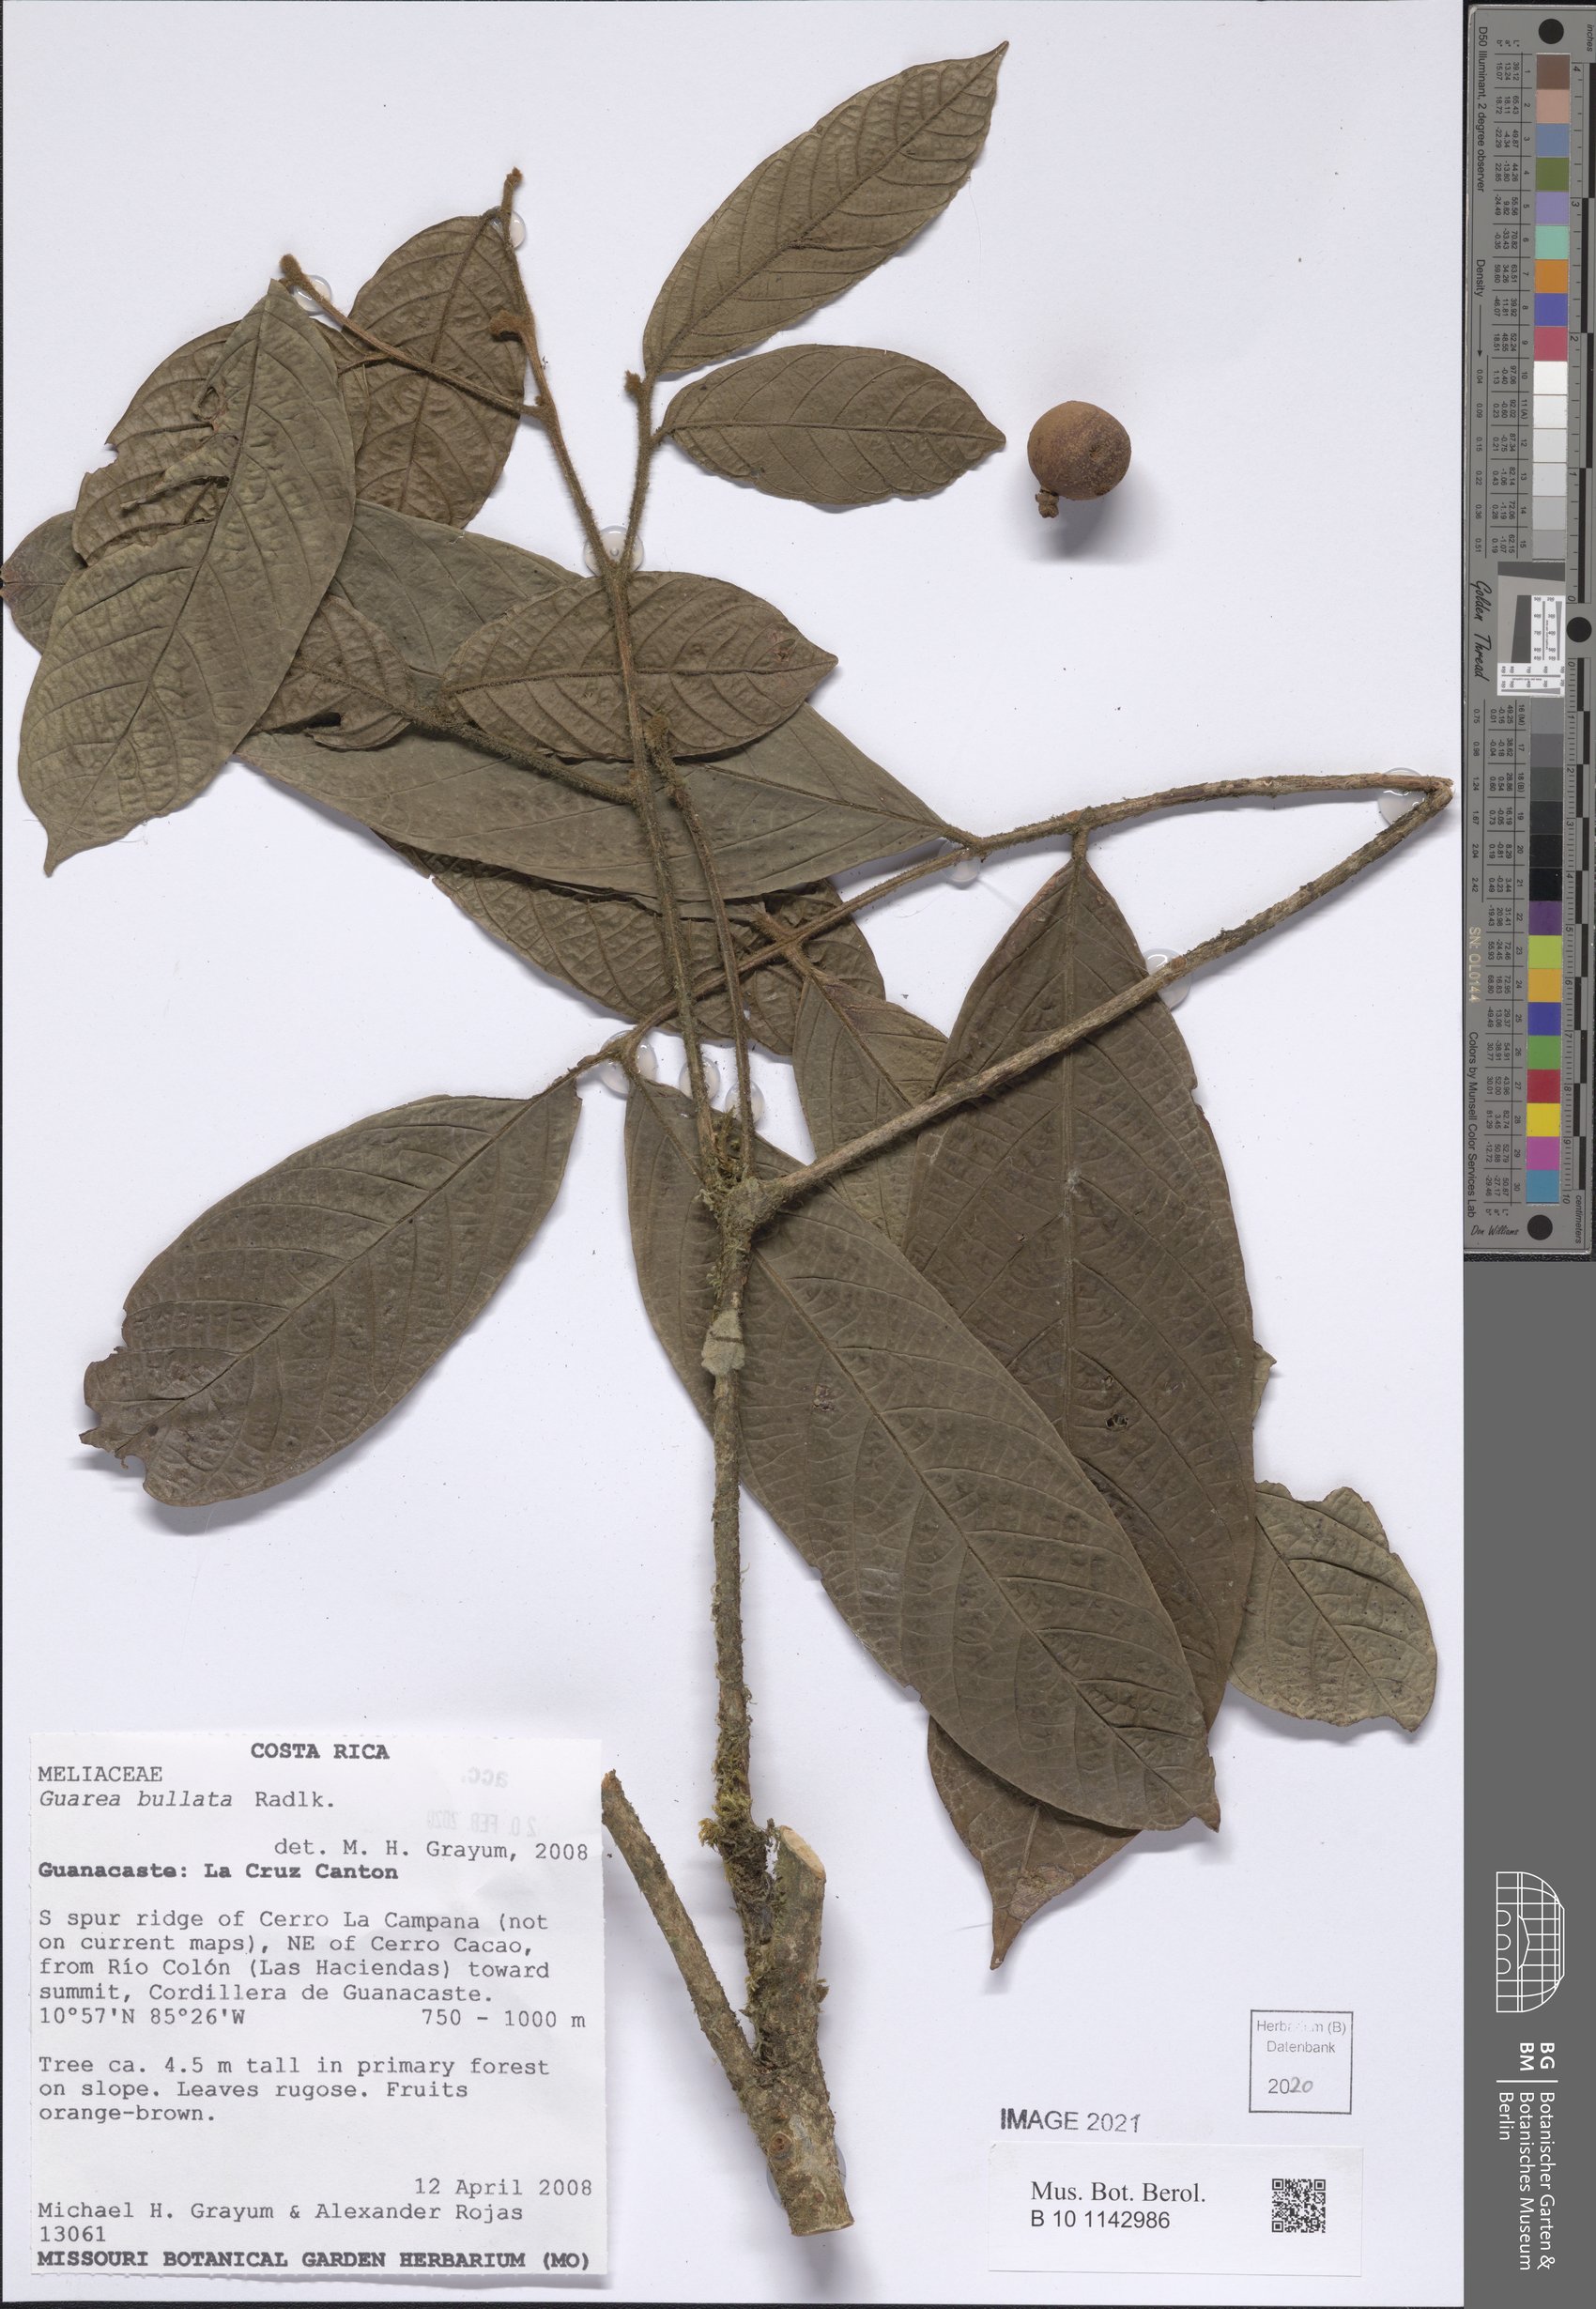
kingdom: Plantae
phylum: Tracheophyta
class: Magnoliopsida
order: Sapindales
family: Meliaceae
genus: Guarea
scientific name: Guarea glabra
